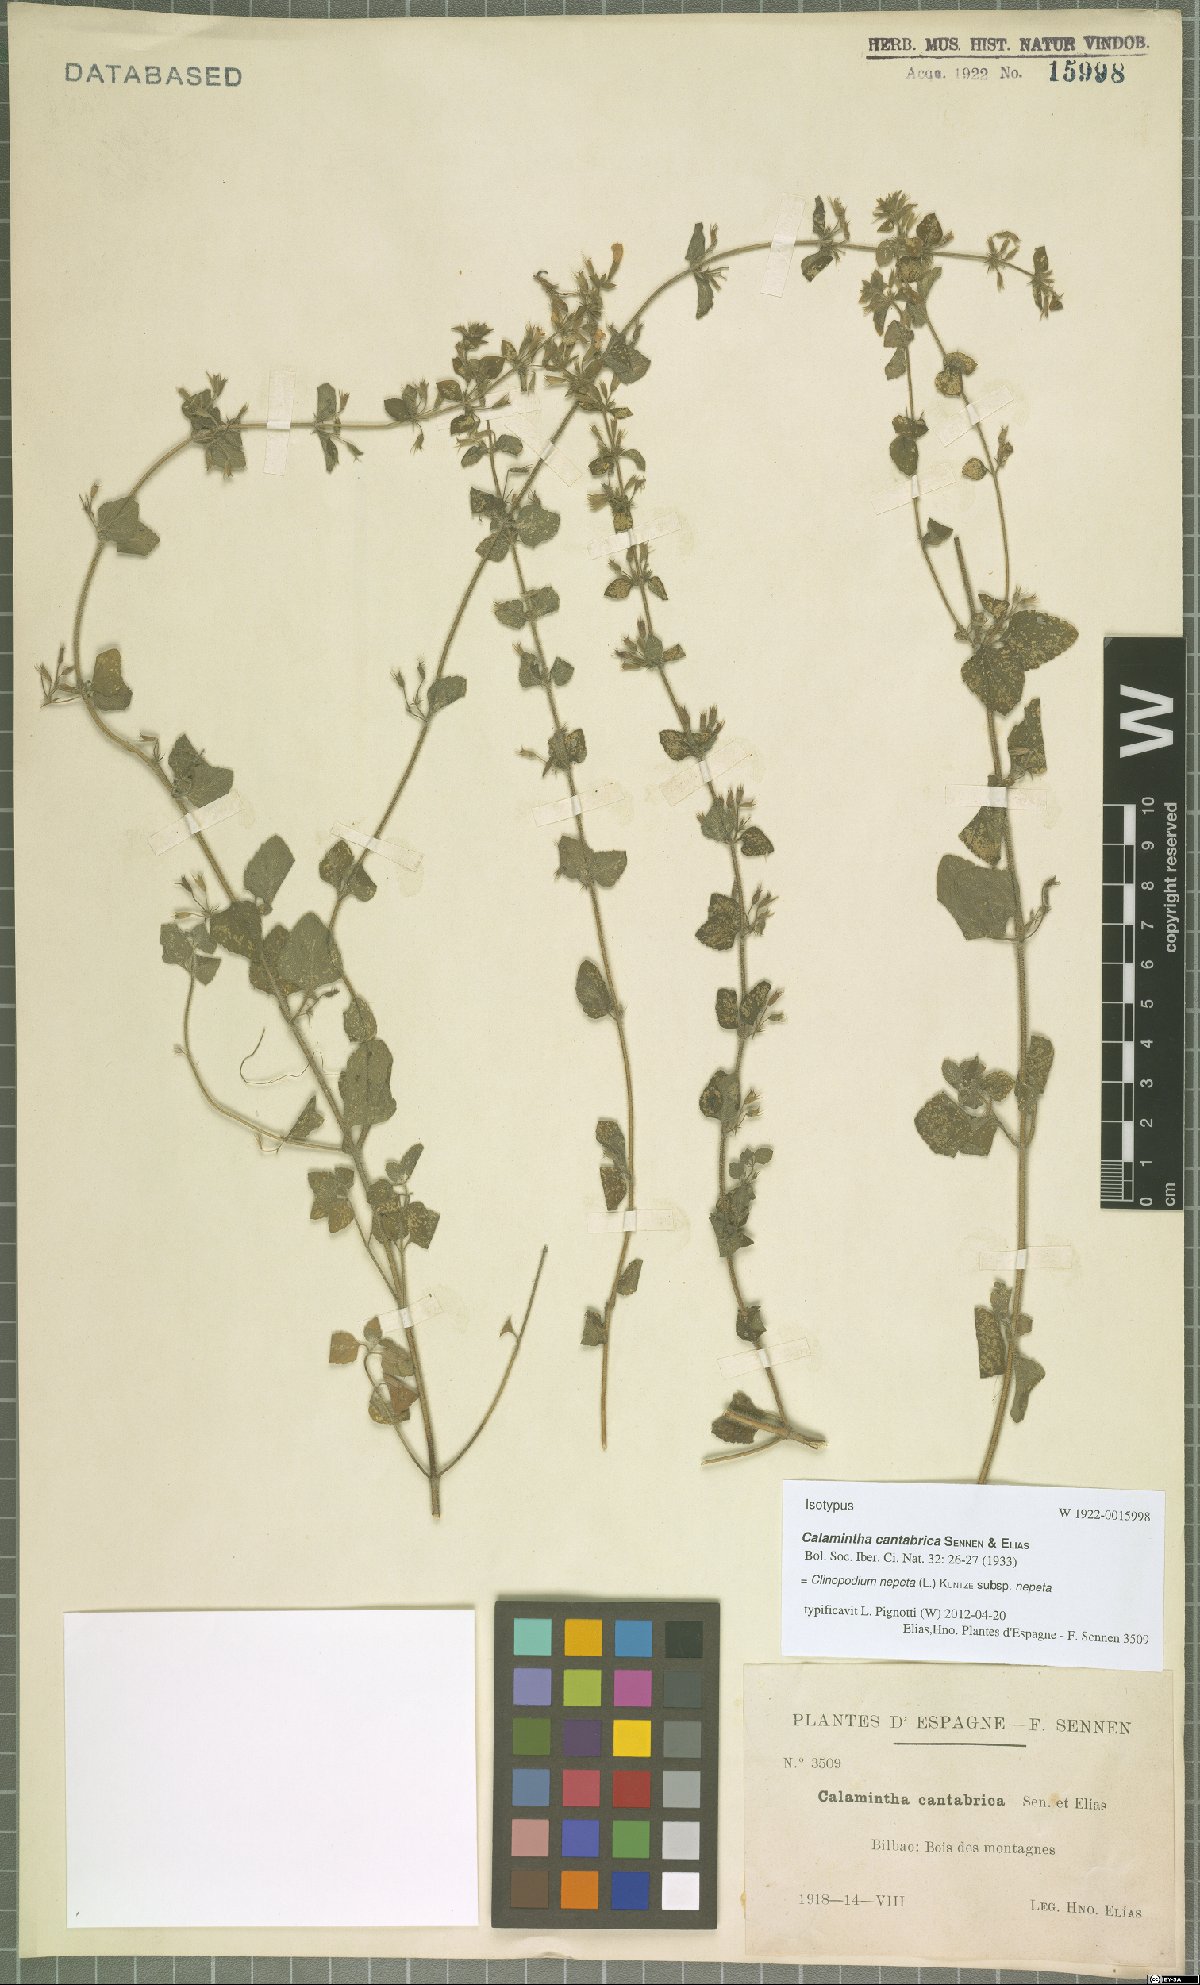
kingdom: Plantae
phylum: Tracheophyta
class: Magnoliopsida
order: Lamiales
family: Lamiaceae
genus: Clinopodium
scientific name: Clinopodium nepeta
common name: Lesser calamint
